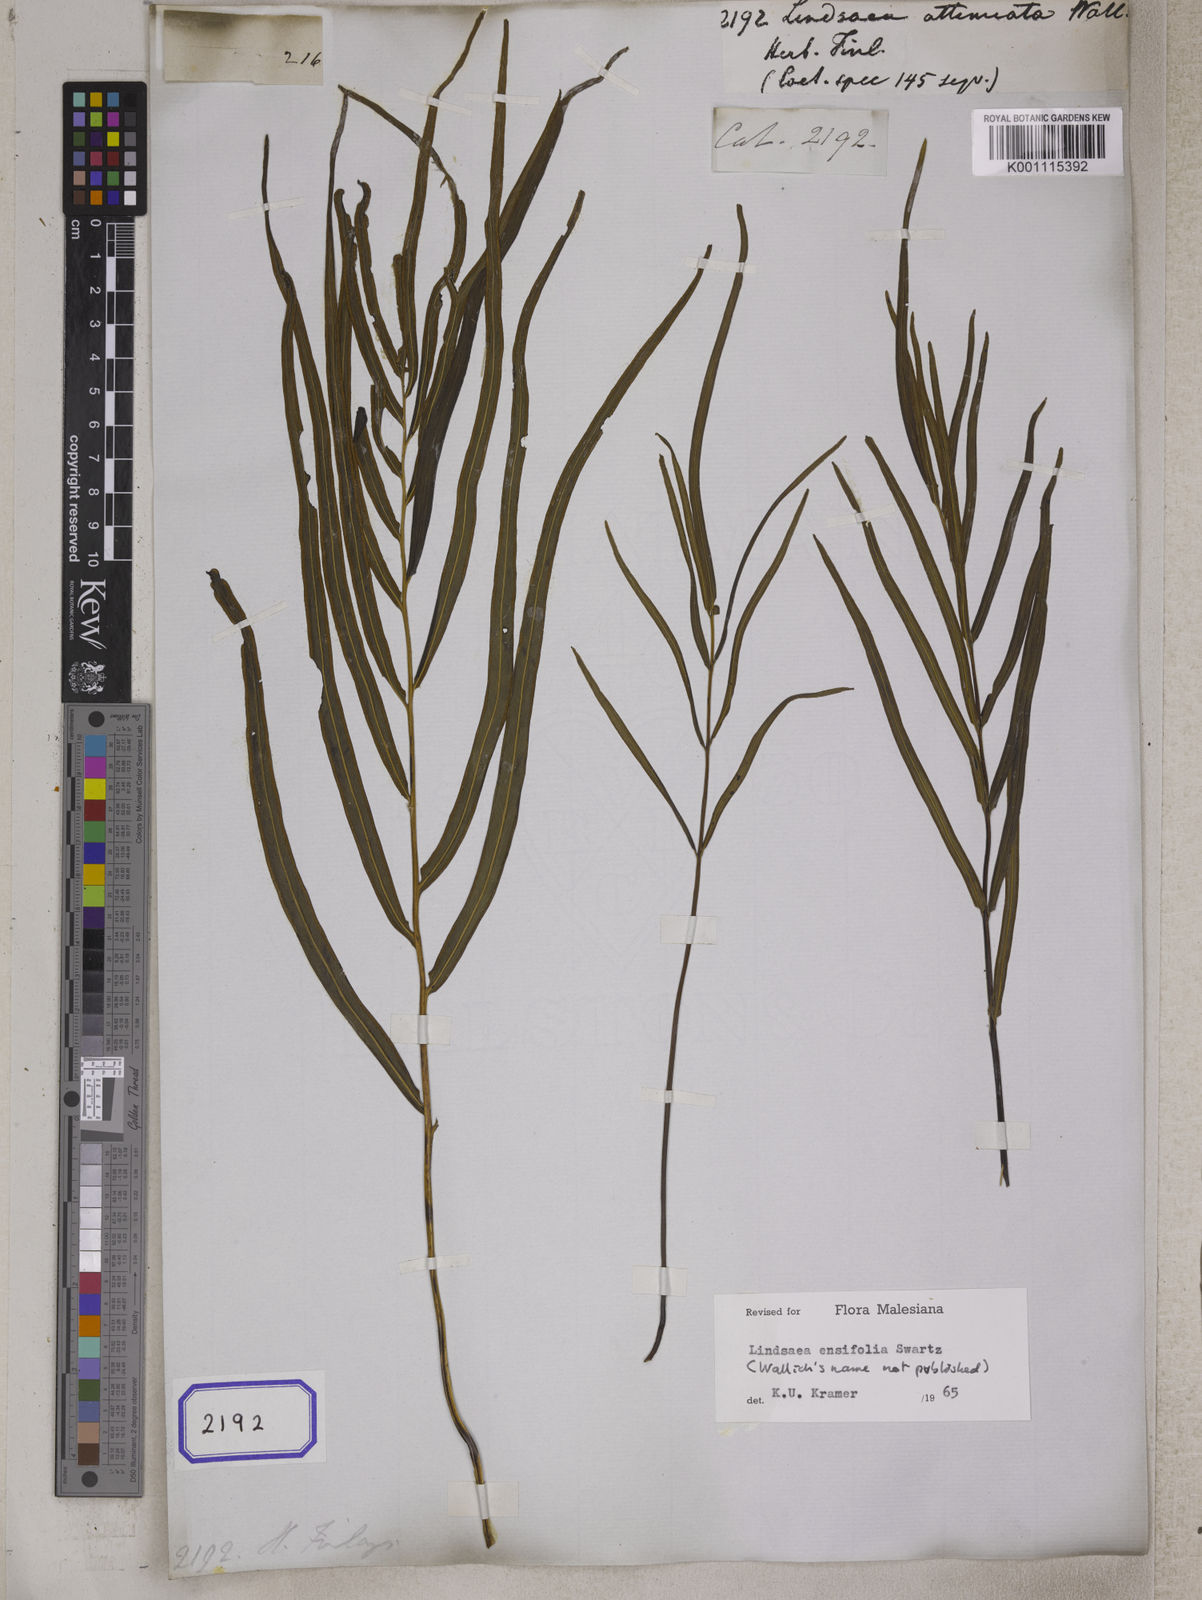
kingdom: Plantae
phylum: Tracheophyta
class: Polypodiopsida
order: Polypodiales
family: Lindsaeaceae
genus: Lindsaea
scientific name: Lindsaea cultrata
